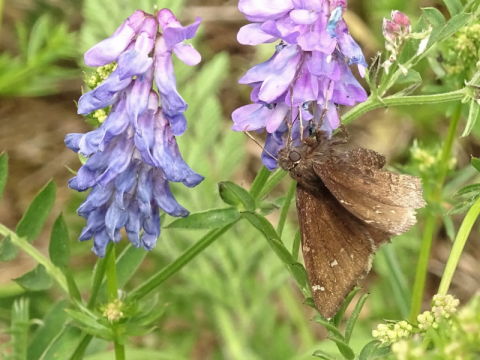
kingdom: Animalia
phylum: Arthropoda
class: Insecta
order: Lepidoptera
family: Hesperiidae
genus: Autochton
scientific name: Autochton
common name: Northern Cloudywing
